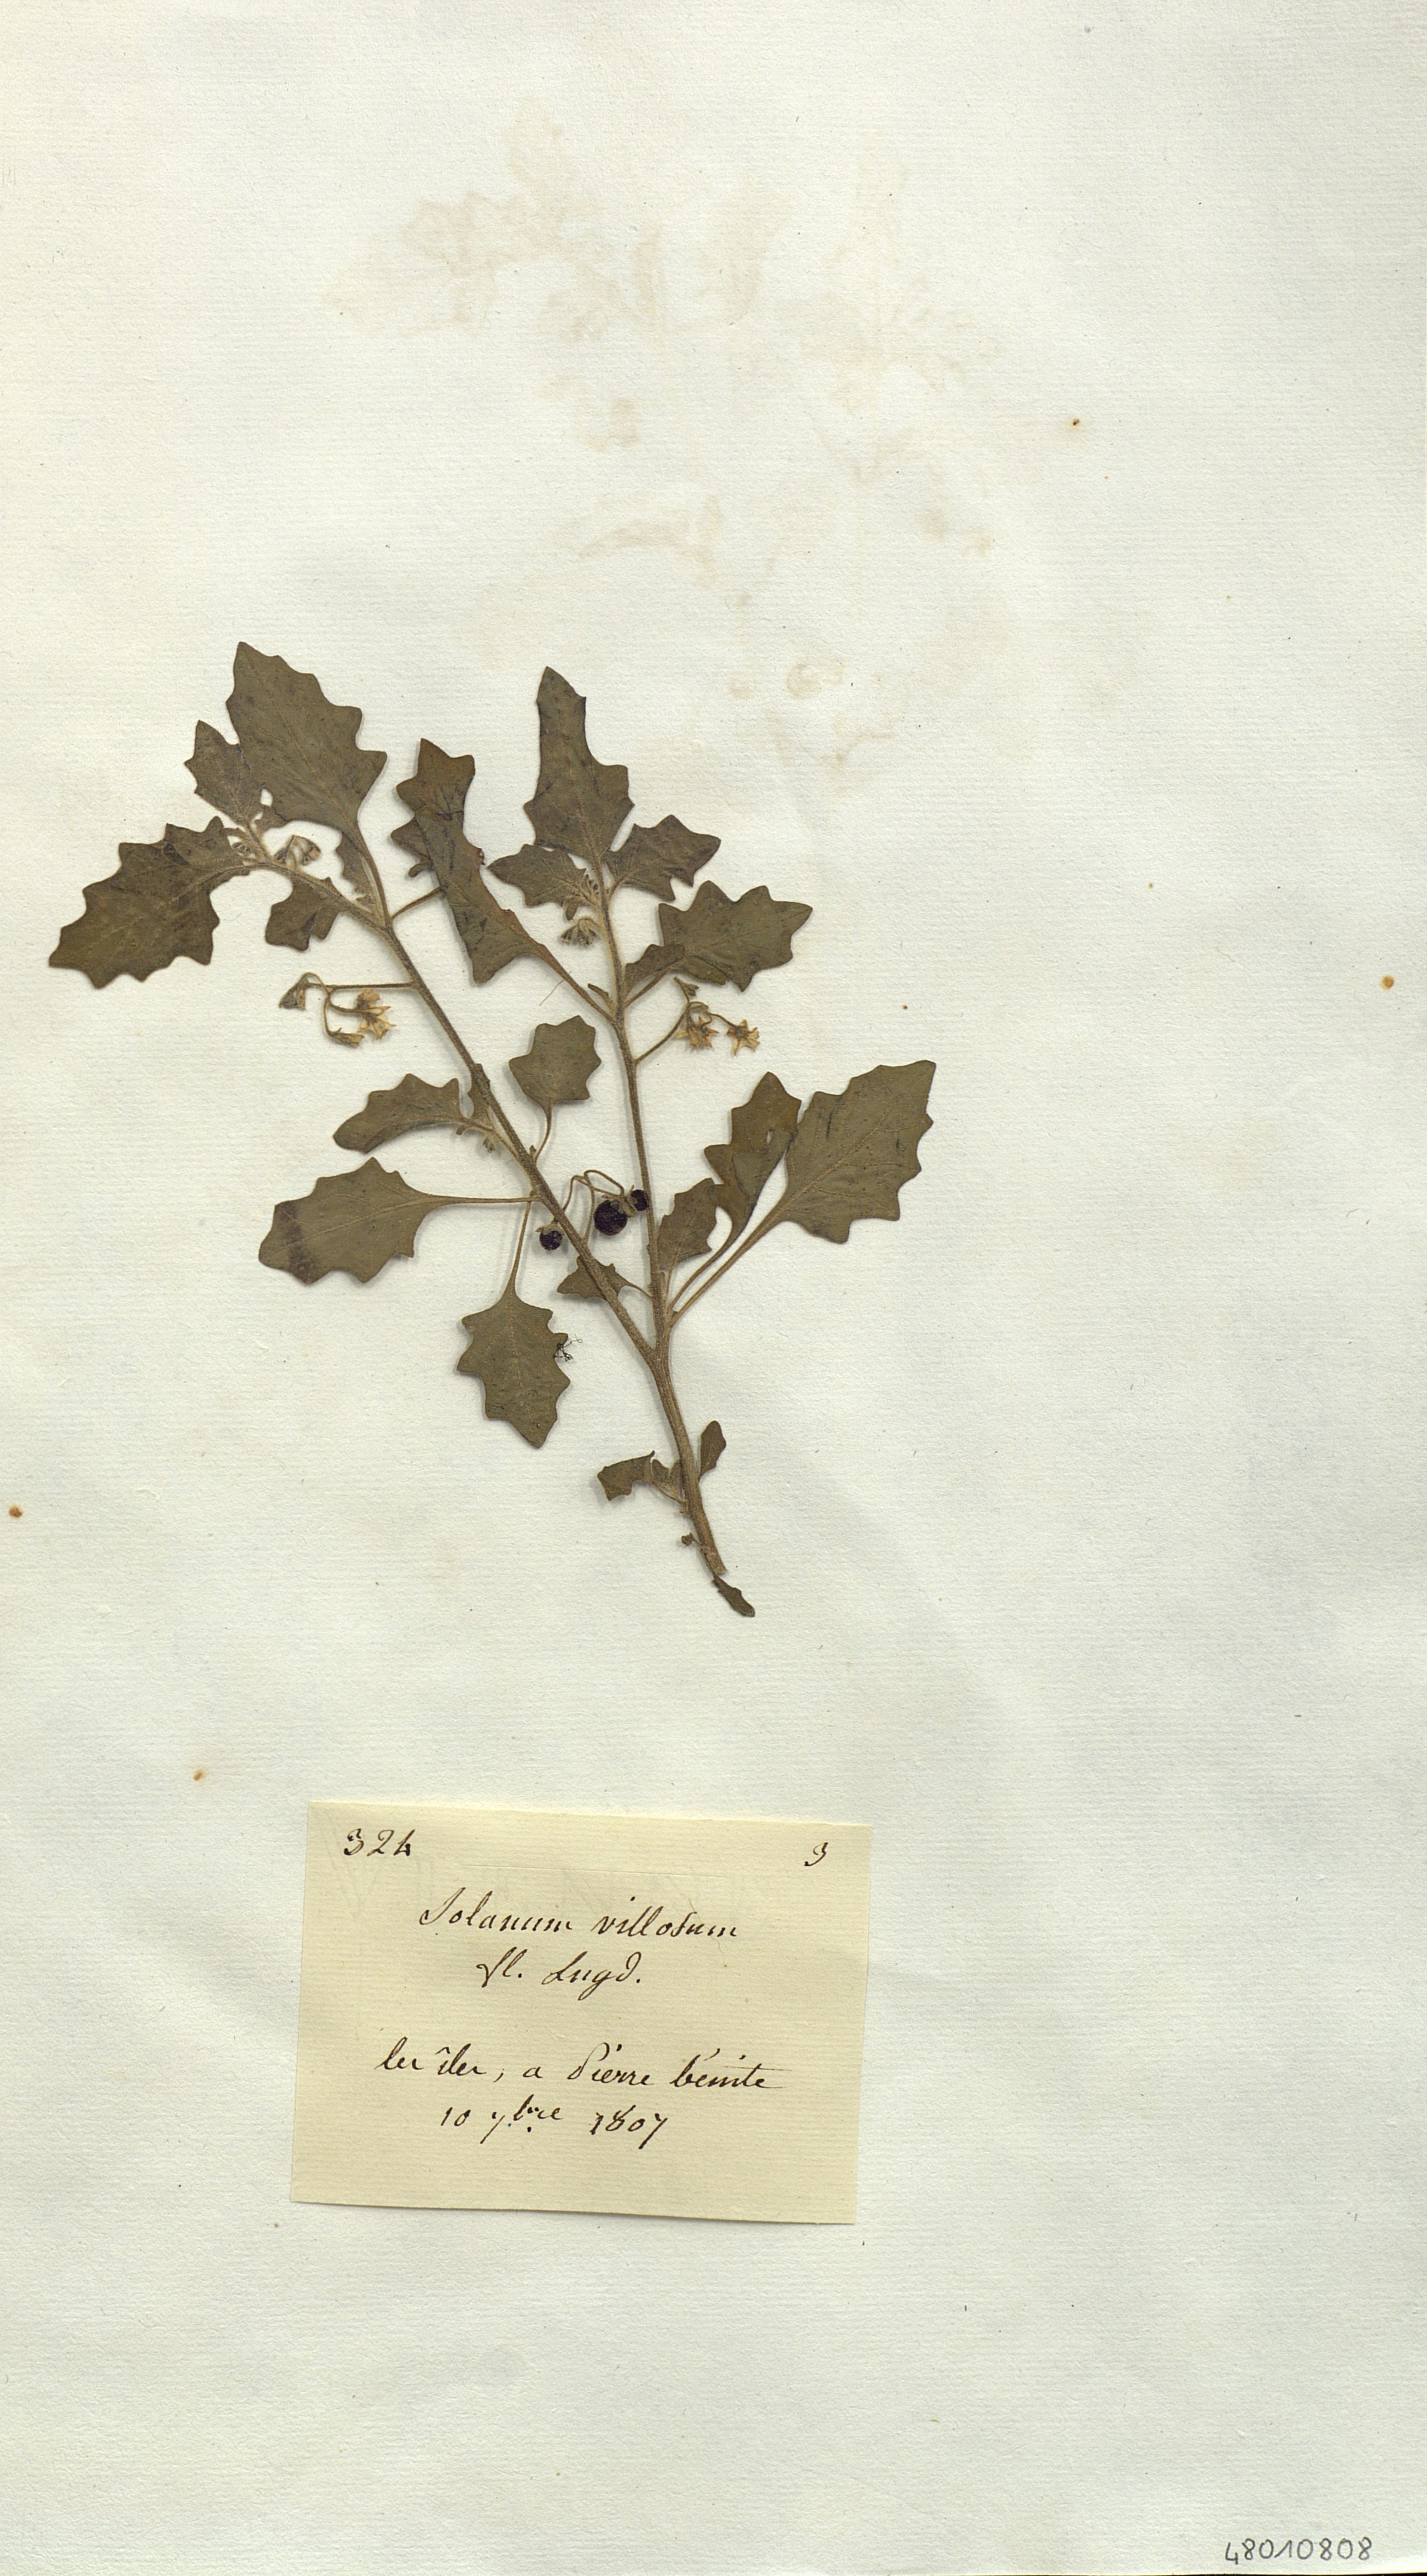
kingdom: Plantae
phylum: Tracheophyta
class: Magnoliopsida
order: Solanales
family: Solanaceae
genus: Solanum
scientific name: Solanum villosum
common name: Red nightshade
